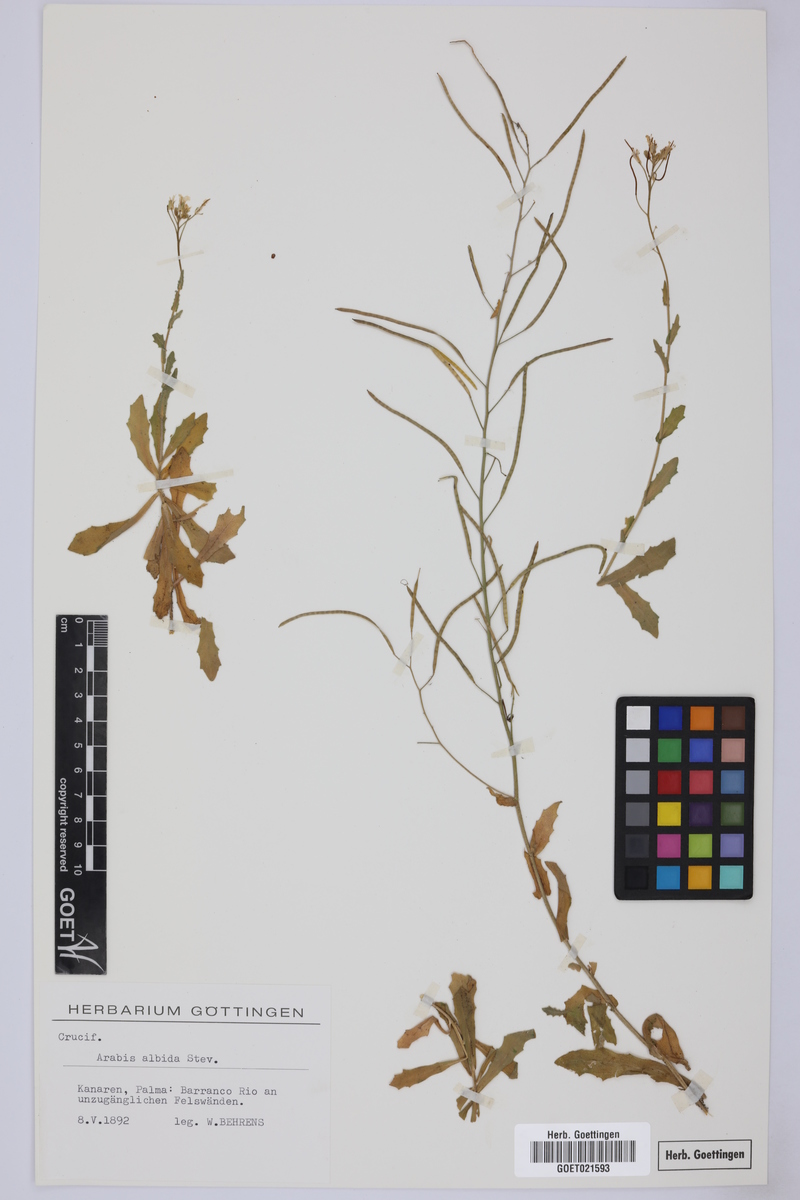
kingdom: Plantae
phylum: Tracheophyta
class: Magnoliopsida
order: Brassicales
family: Brassicaceae
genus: Arabis
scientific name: Arabis caucasica
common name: Gray rockcress
